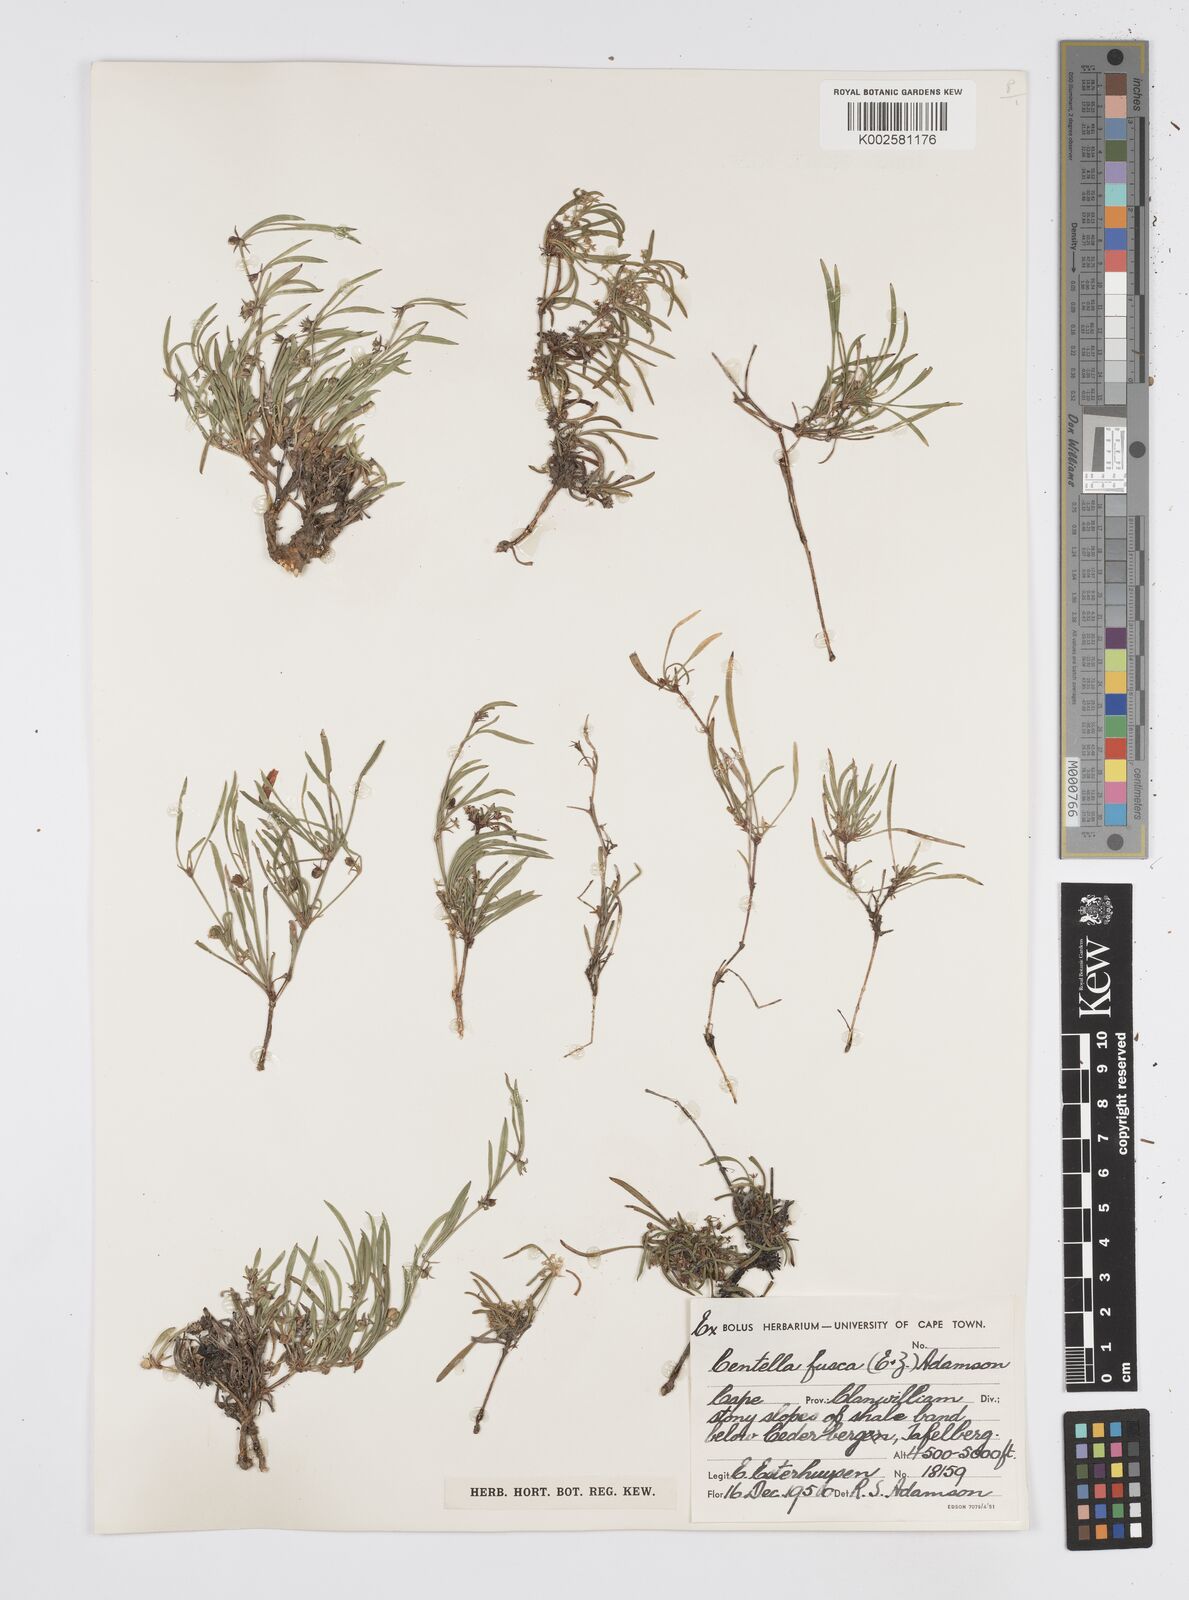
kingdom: Plantae
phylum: Tracheophyta
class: Magnoliopsida
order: Apiales
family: Apiaceae
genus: Centella
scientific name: Centella fusca
